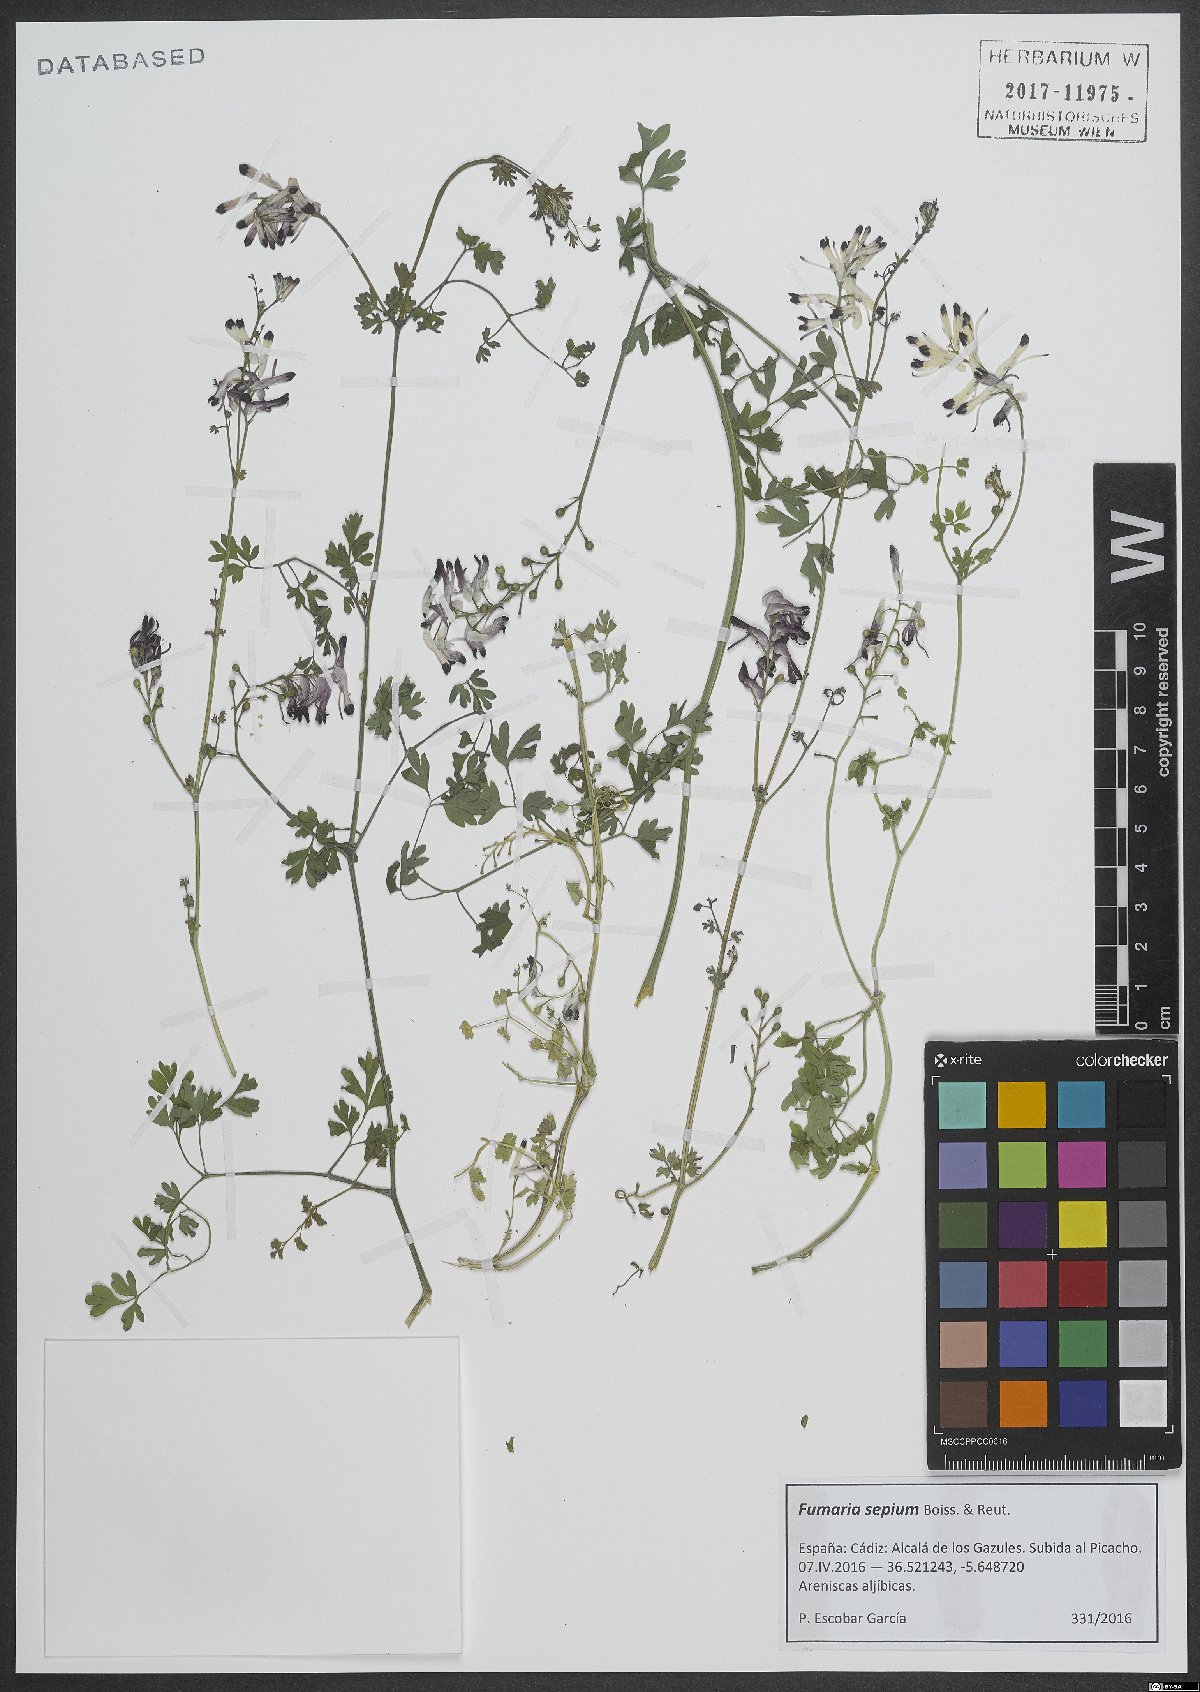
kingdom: Plantae
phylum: Tracheophyta
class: Magnoliopsida
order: Ranunculales
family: Papaveraceae
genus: Fumaria
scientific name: Fumaria sepium
